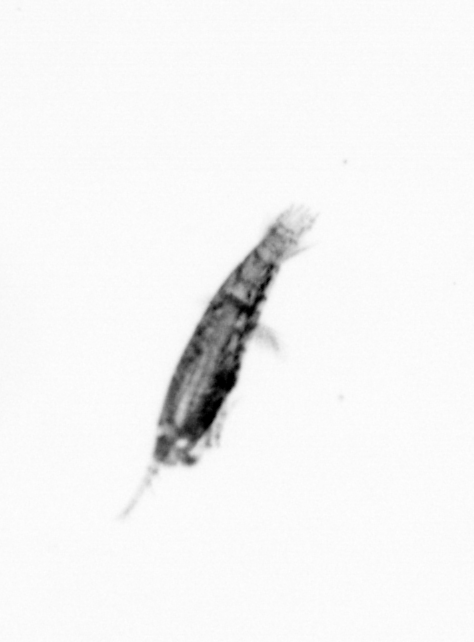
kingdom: Animalia
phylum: Arthropoda
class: Copepoda
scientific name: Copepoda
